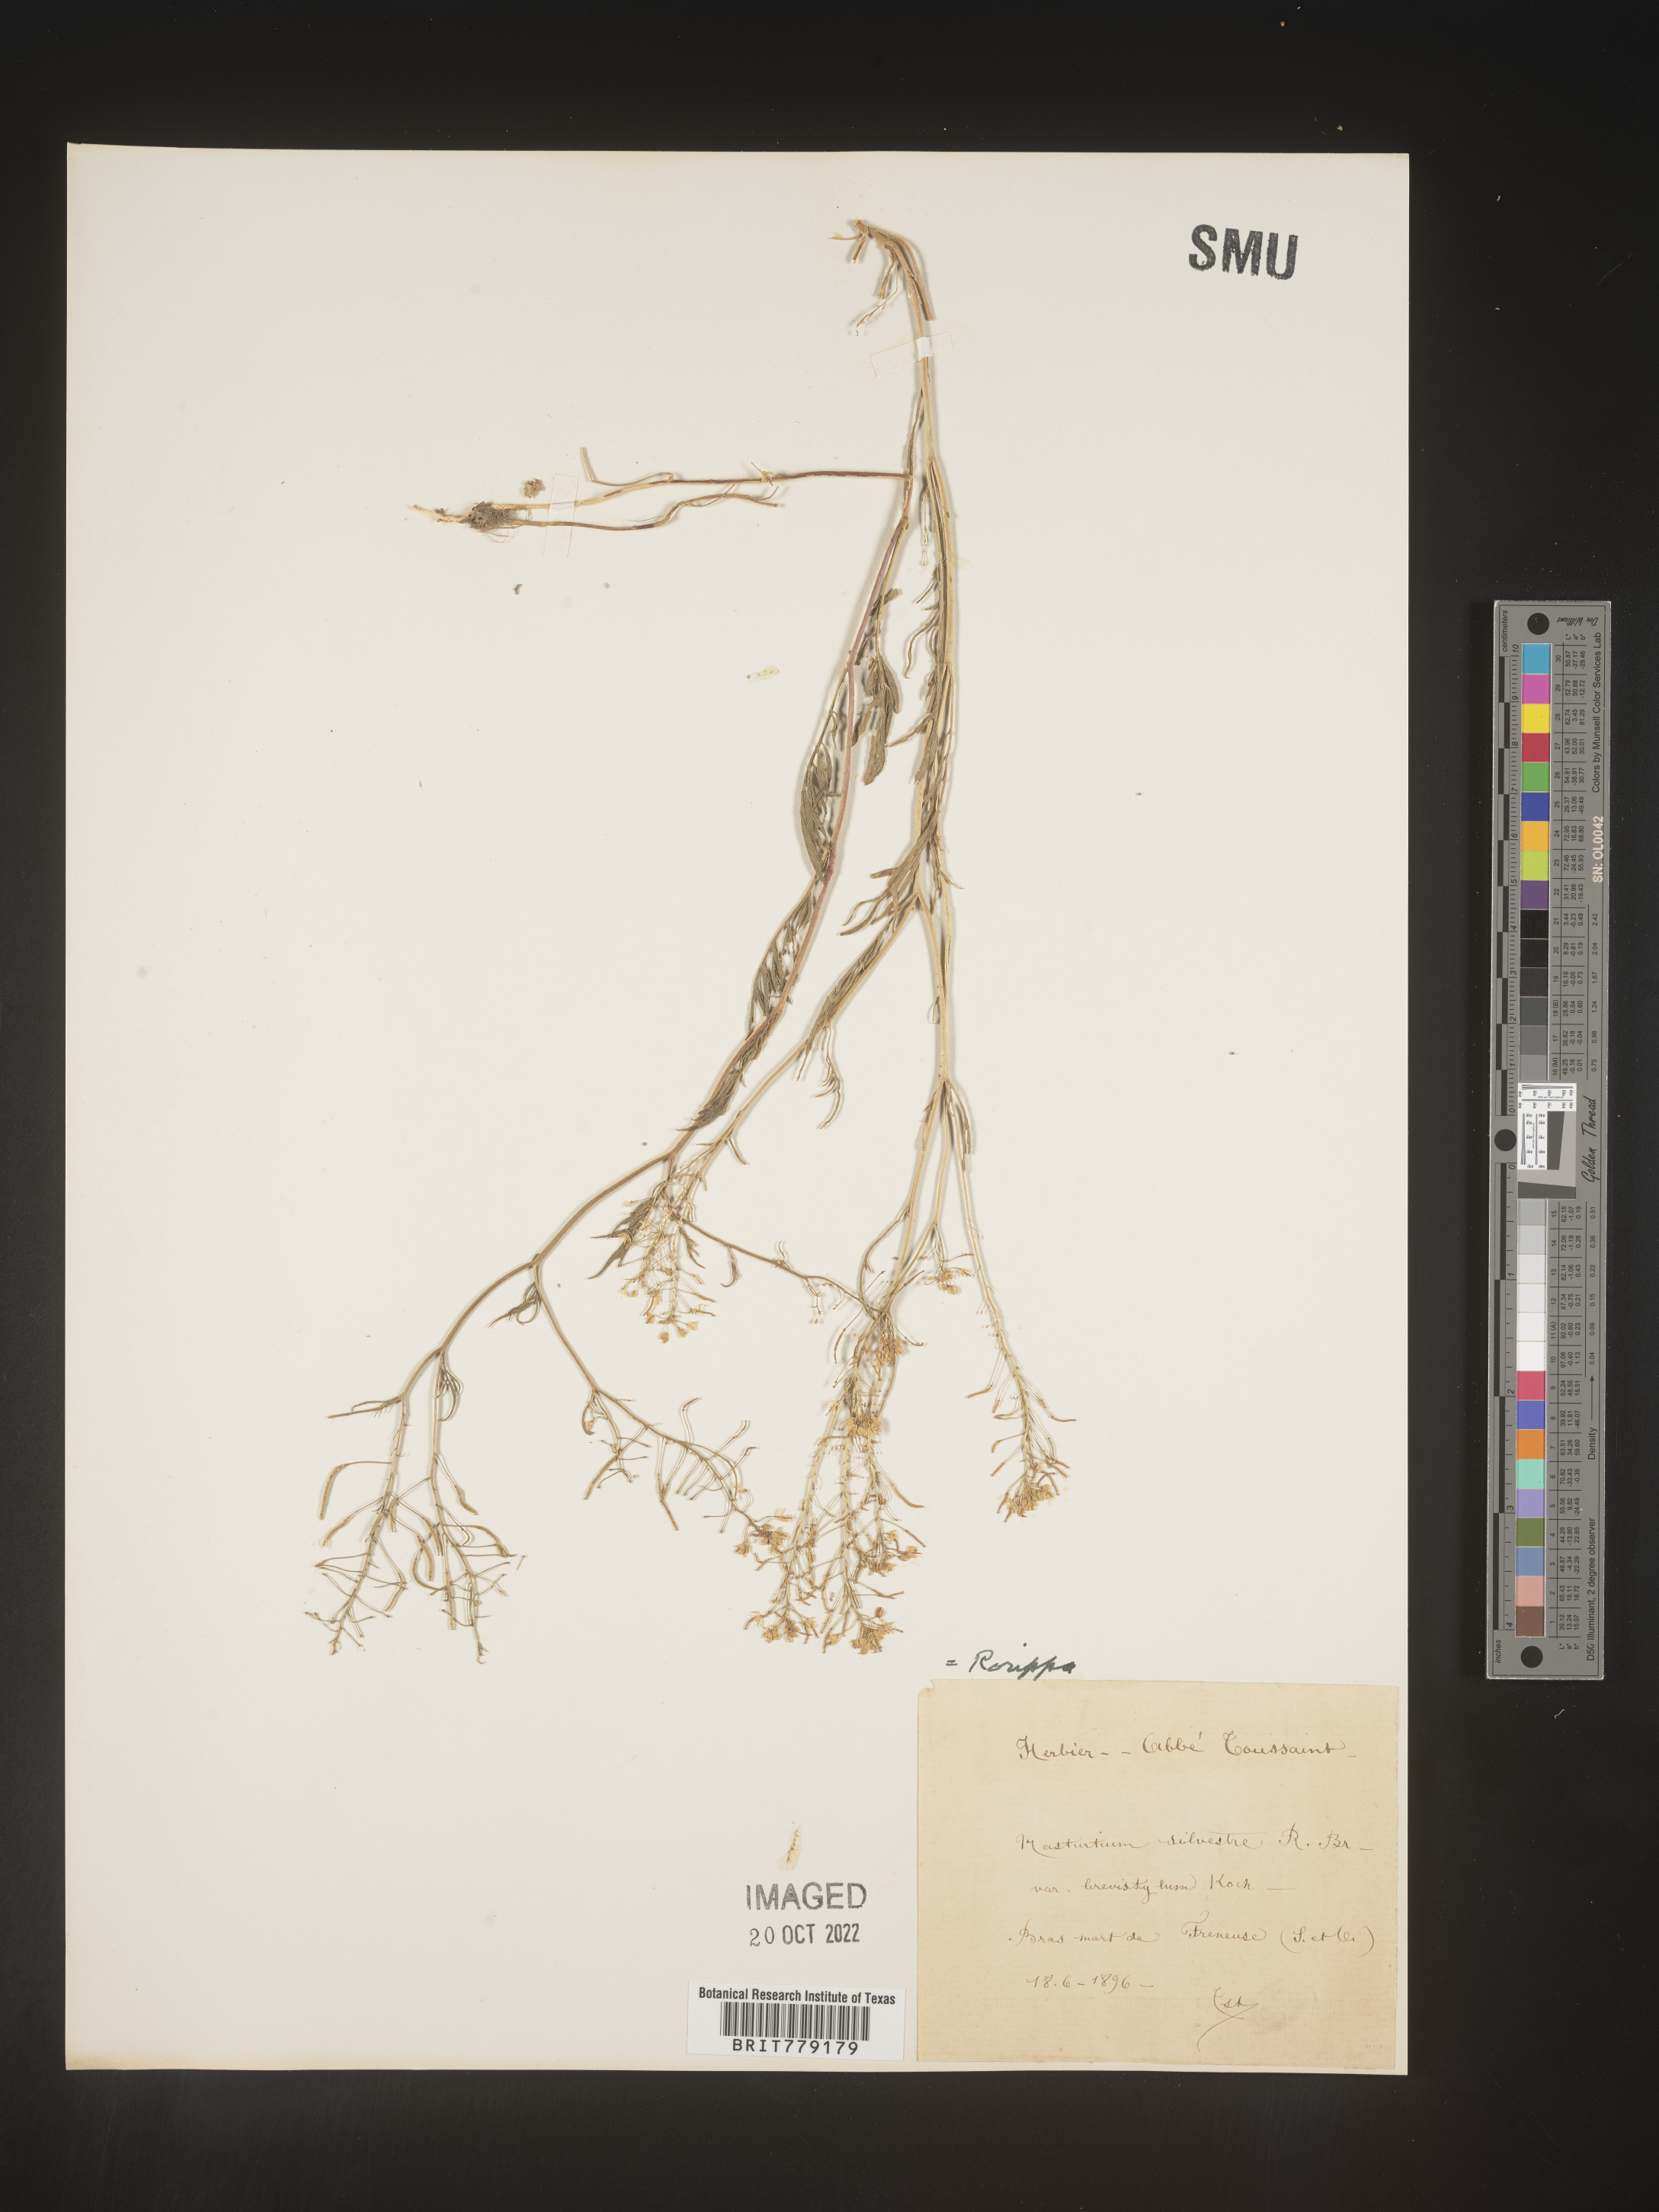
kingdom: Plantae
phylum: Tracheophyta
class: Magnoliopsida
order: Brassicales
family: Brassicaceae
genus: Rorippa
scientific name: Rorippa
